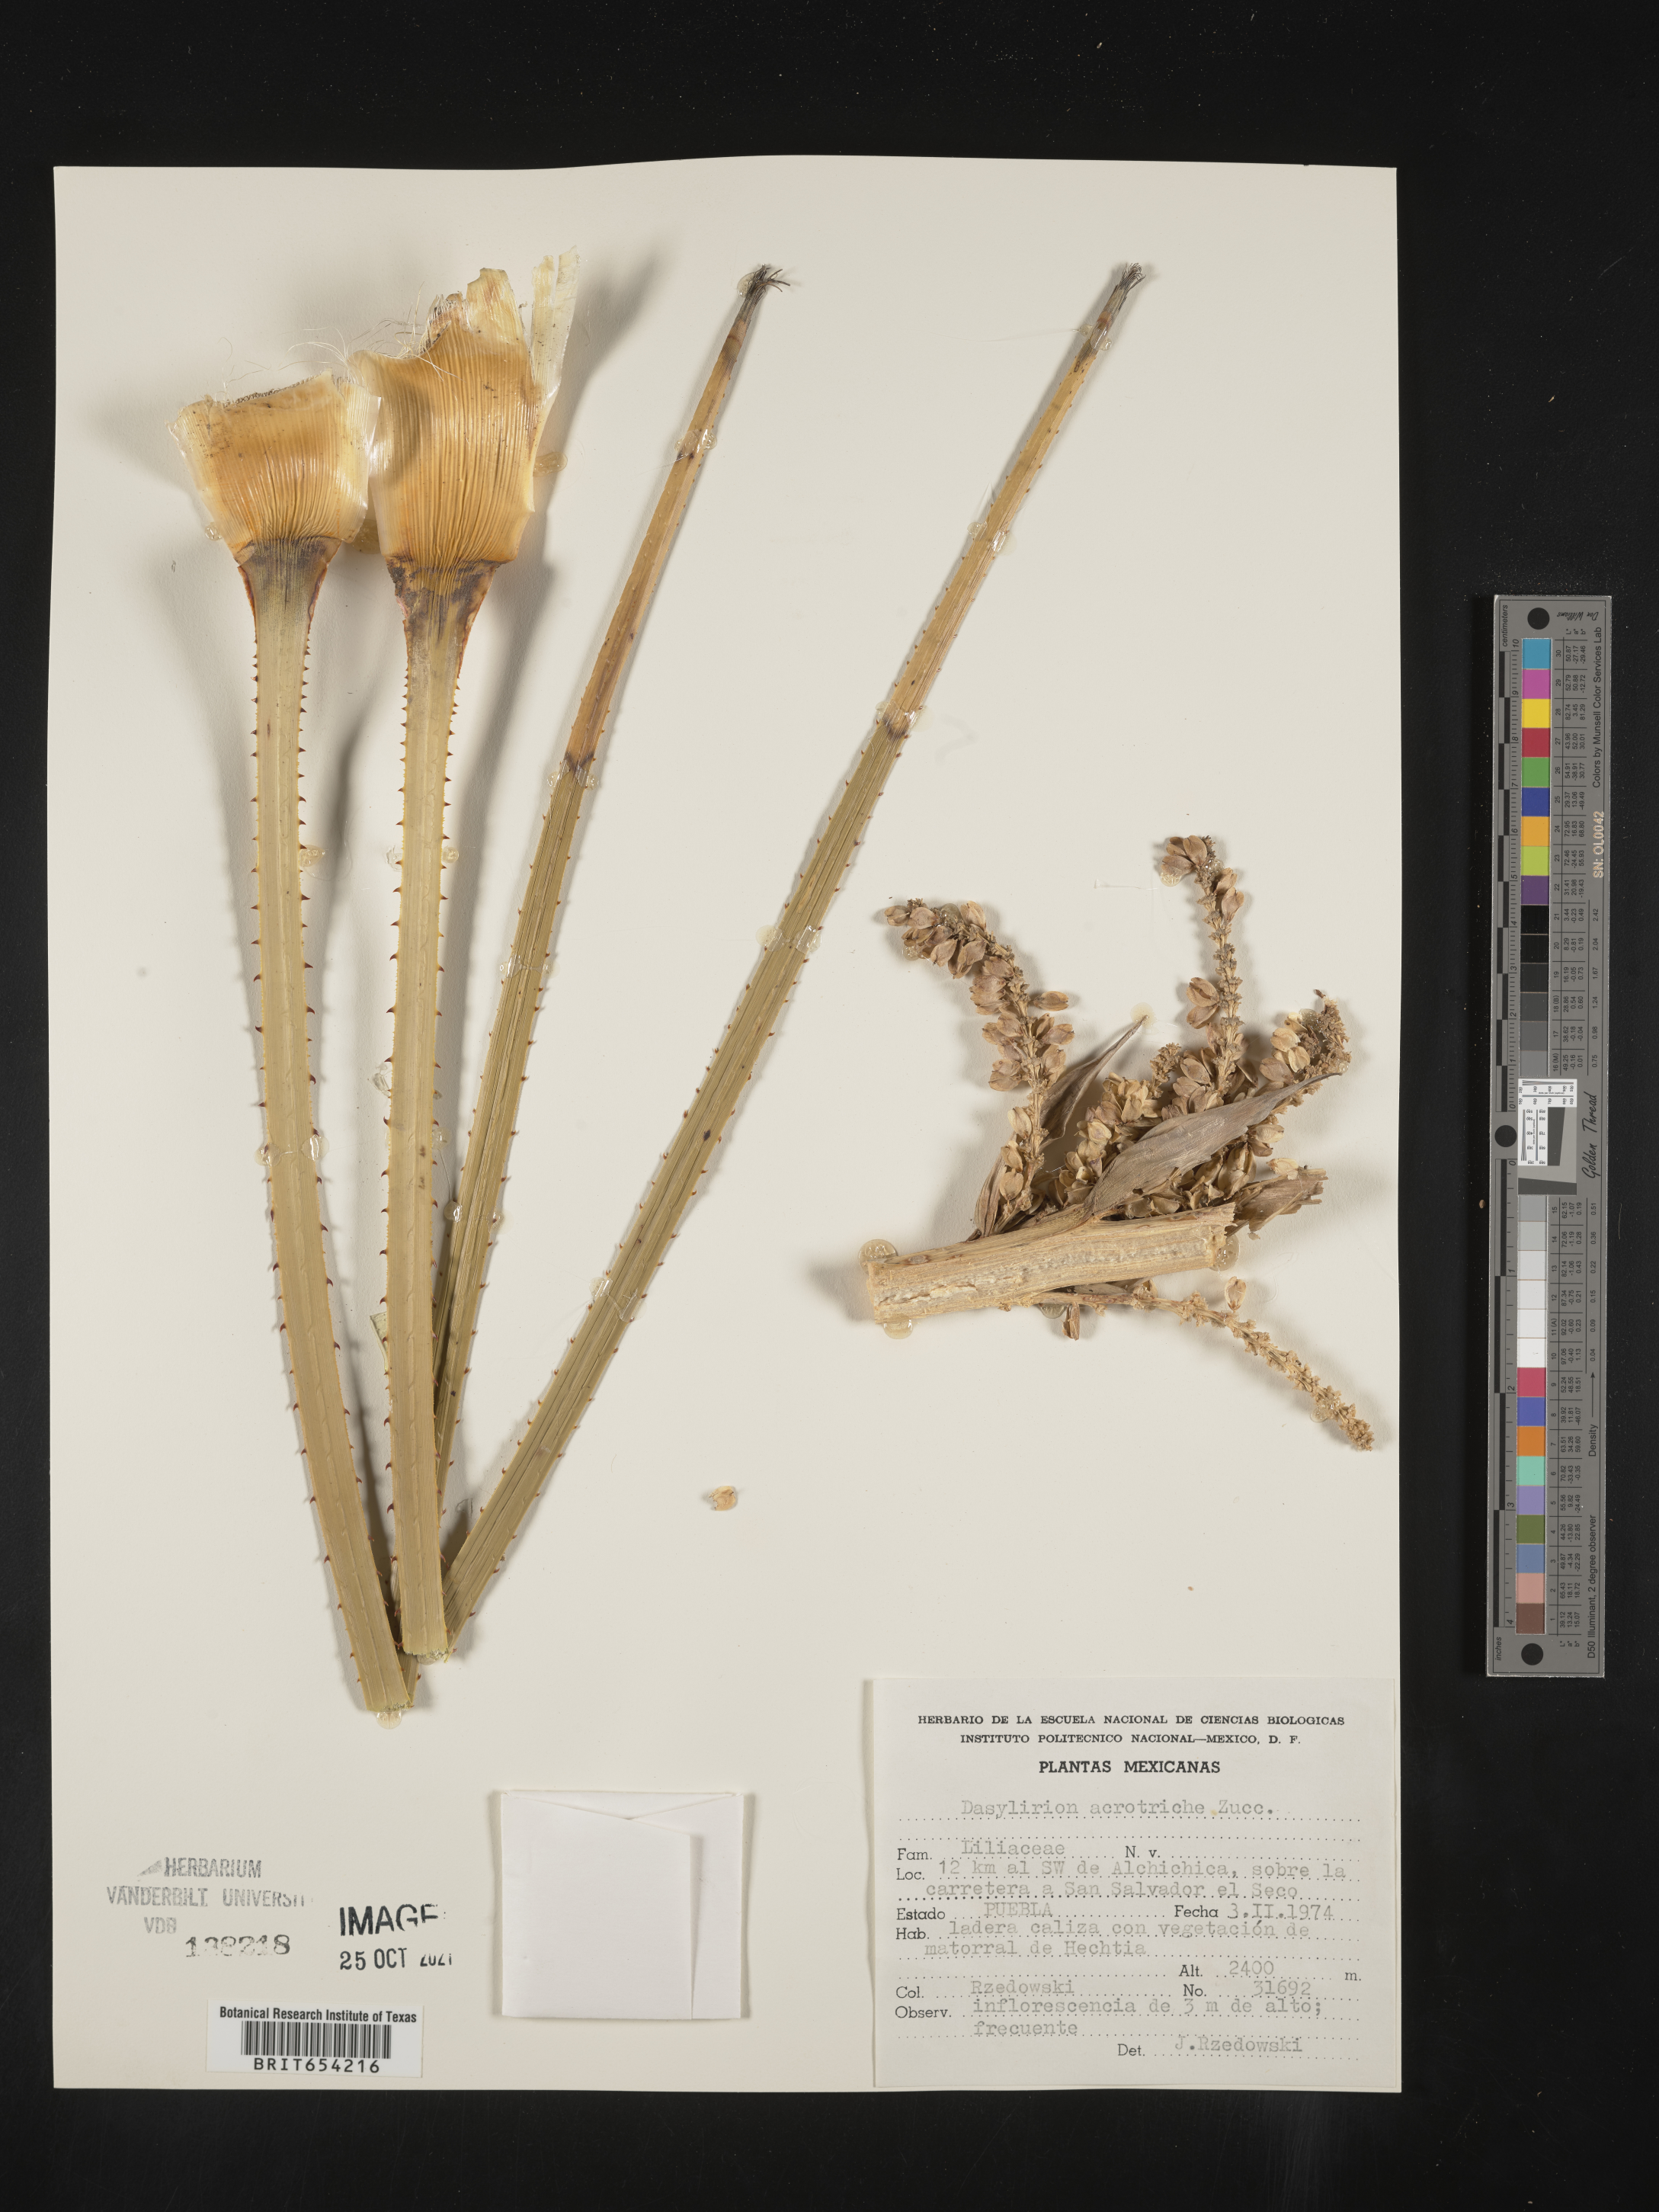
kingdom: Plantae
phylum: Tracheophyta
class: Liliopsida
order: Asparagales
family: Asparagaceae
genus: Dasylirion
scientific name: Dasylirion
